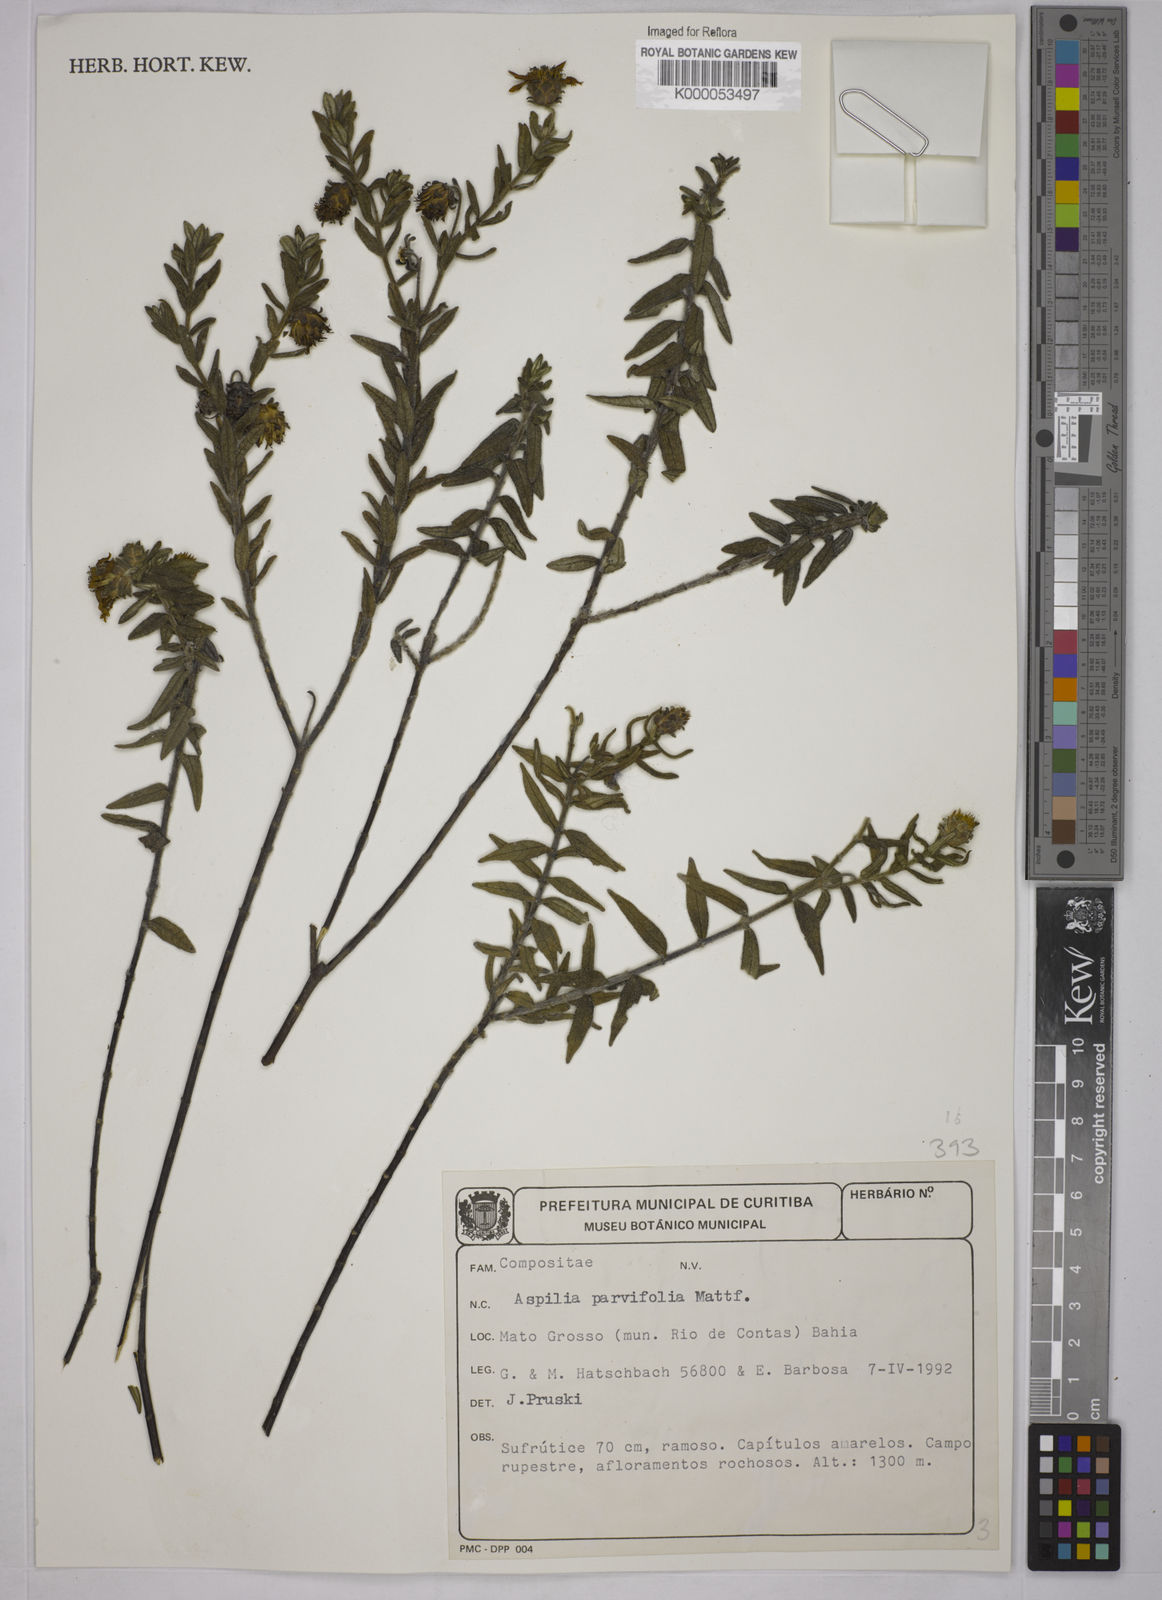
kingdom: Plantae
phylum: Tracheophyta
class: Magnoliopsida
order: Asterales
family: Asteraceae
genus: Aspilia
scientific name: Aspilia foliosa
